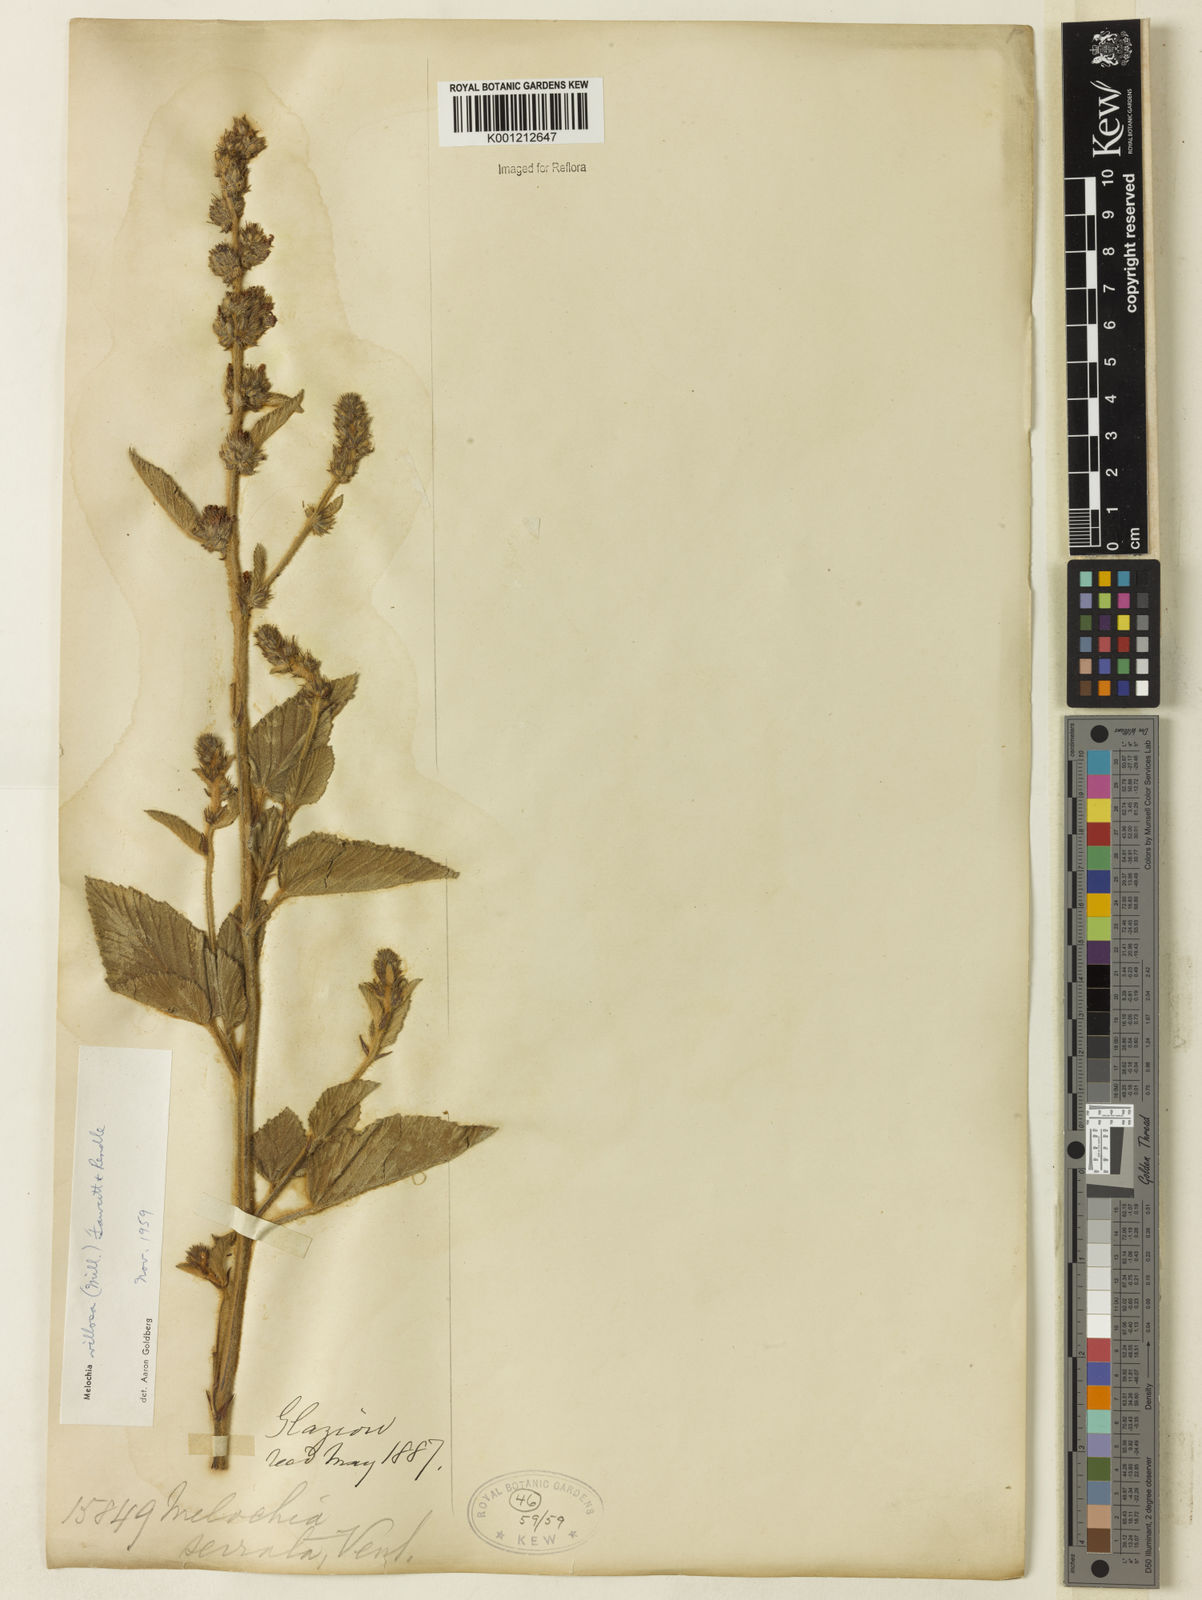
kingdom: Plantae
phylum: Tracheophyta
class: Magnoliopsida
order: Malvales
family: Malvaceae
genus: Melochia
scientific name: Melochia spicata
